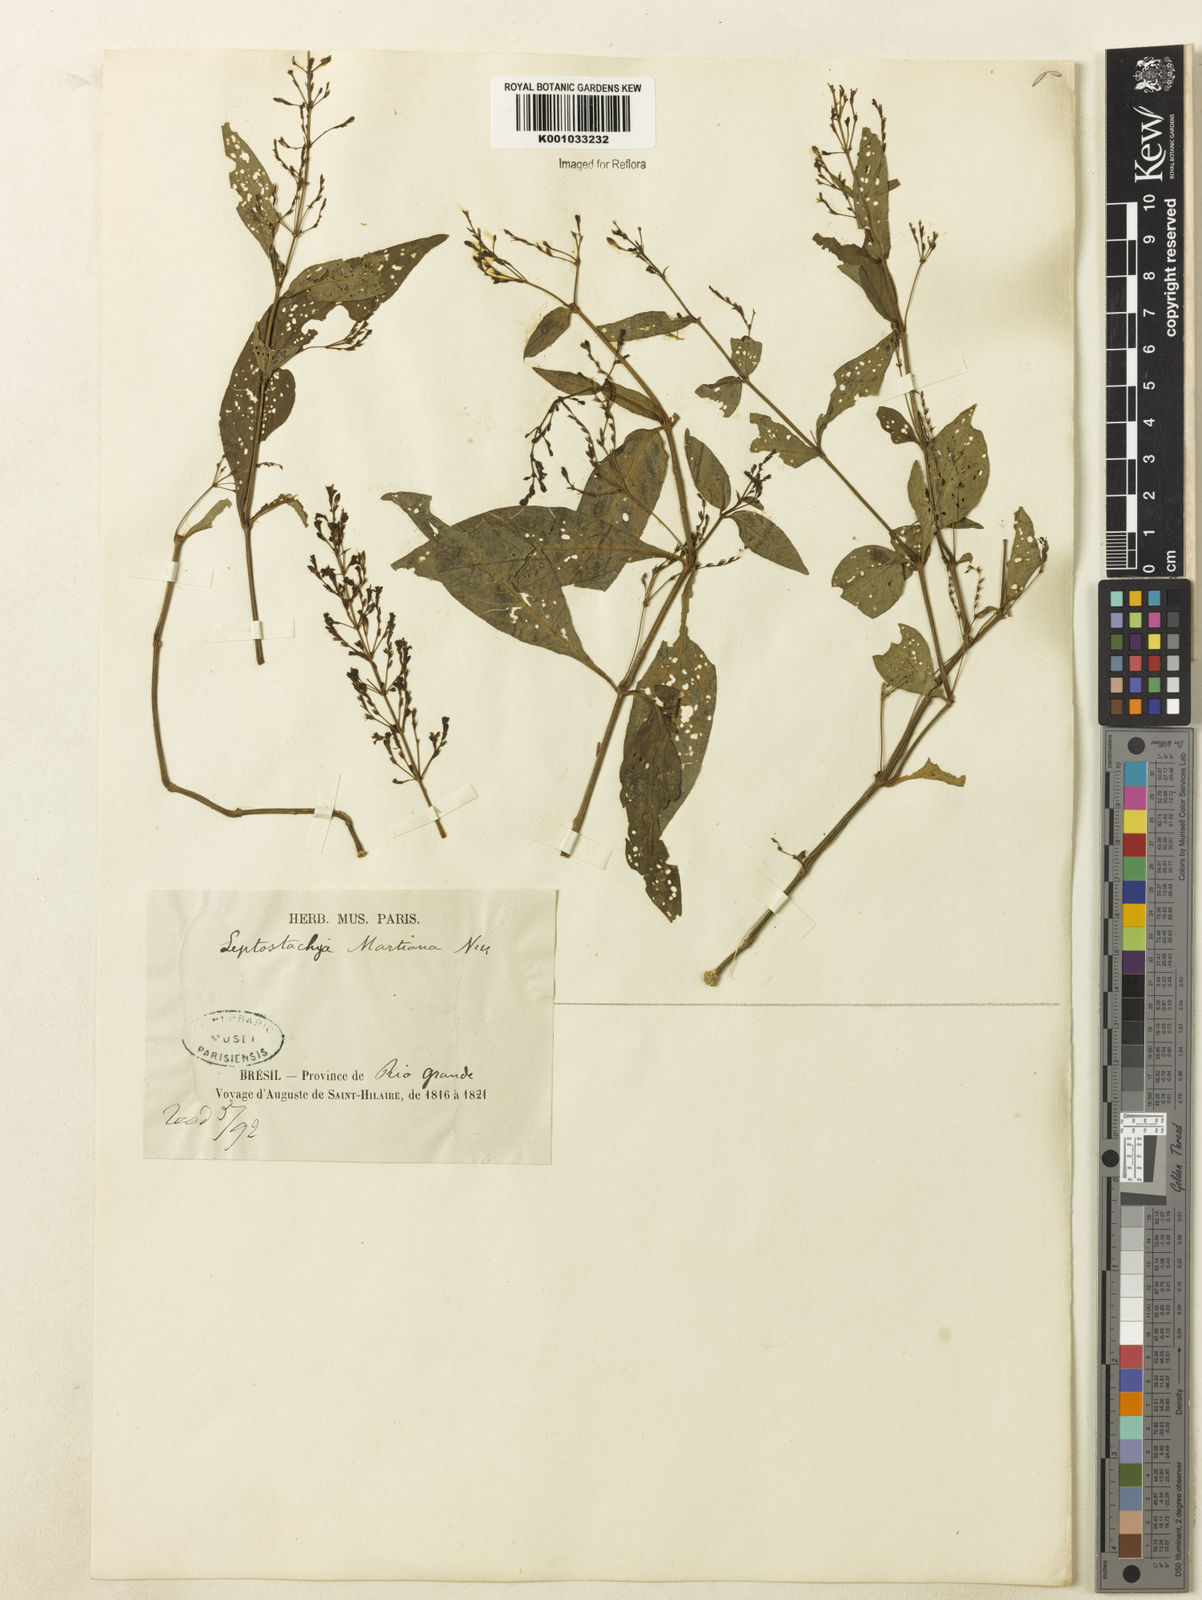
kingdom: Plantae
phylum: Tracheophyta
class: Magnoliopsida
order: Lamiales
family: Acanthaceae
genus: Dianthera
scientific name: Dianthera comata
